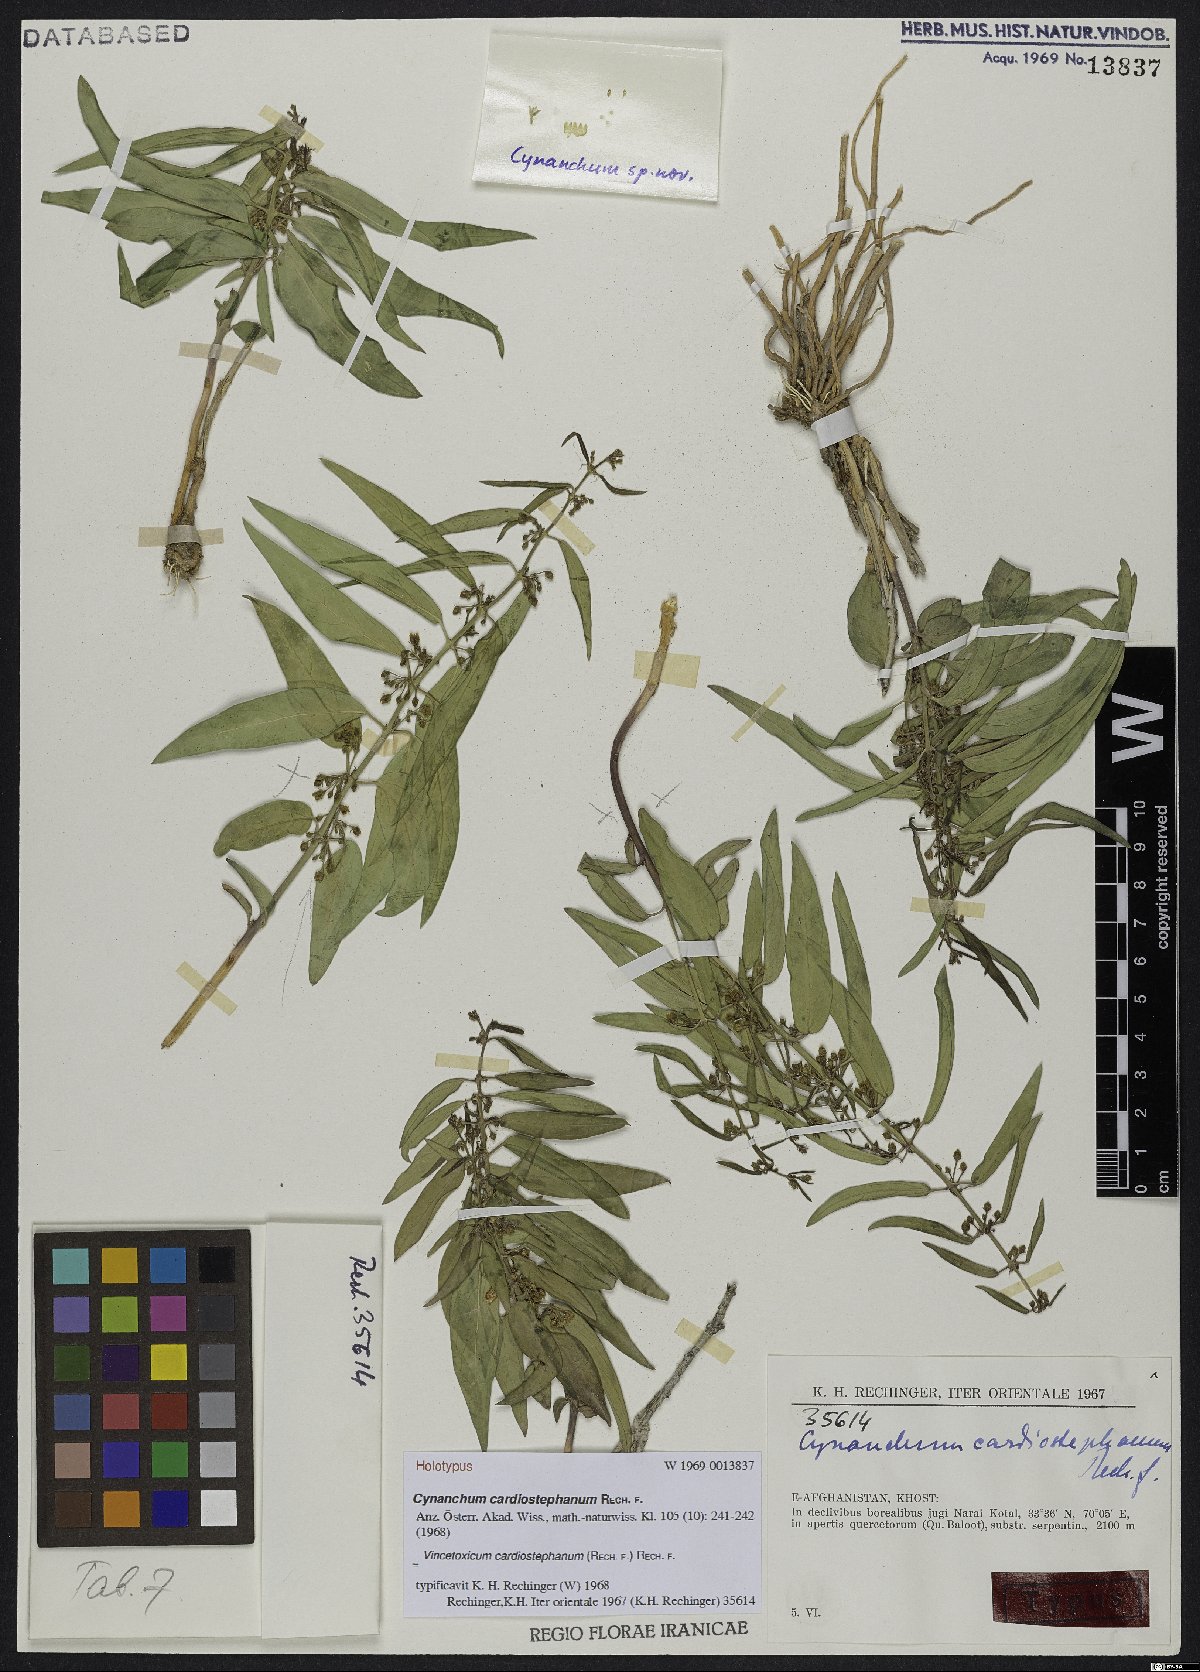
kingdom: Plantae
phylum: Tracheophyta
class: Magnoliopsida
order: Gentianales
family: Apocynaceae
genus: Vincetoxicum
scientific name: Vincetoxicum cardiostephanum
